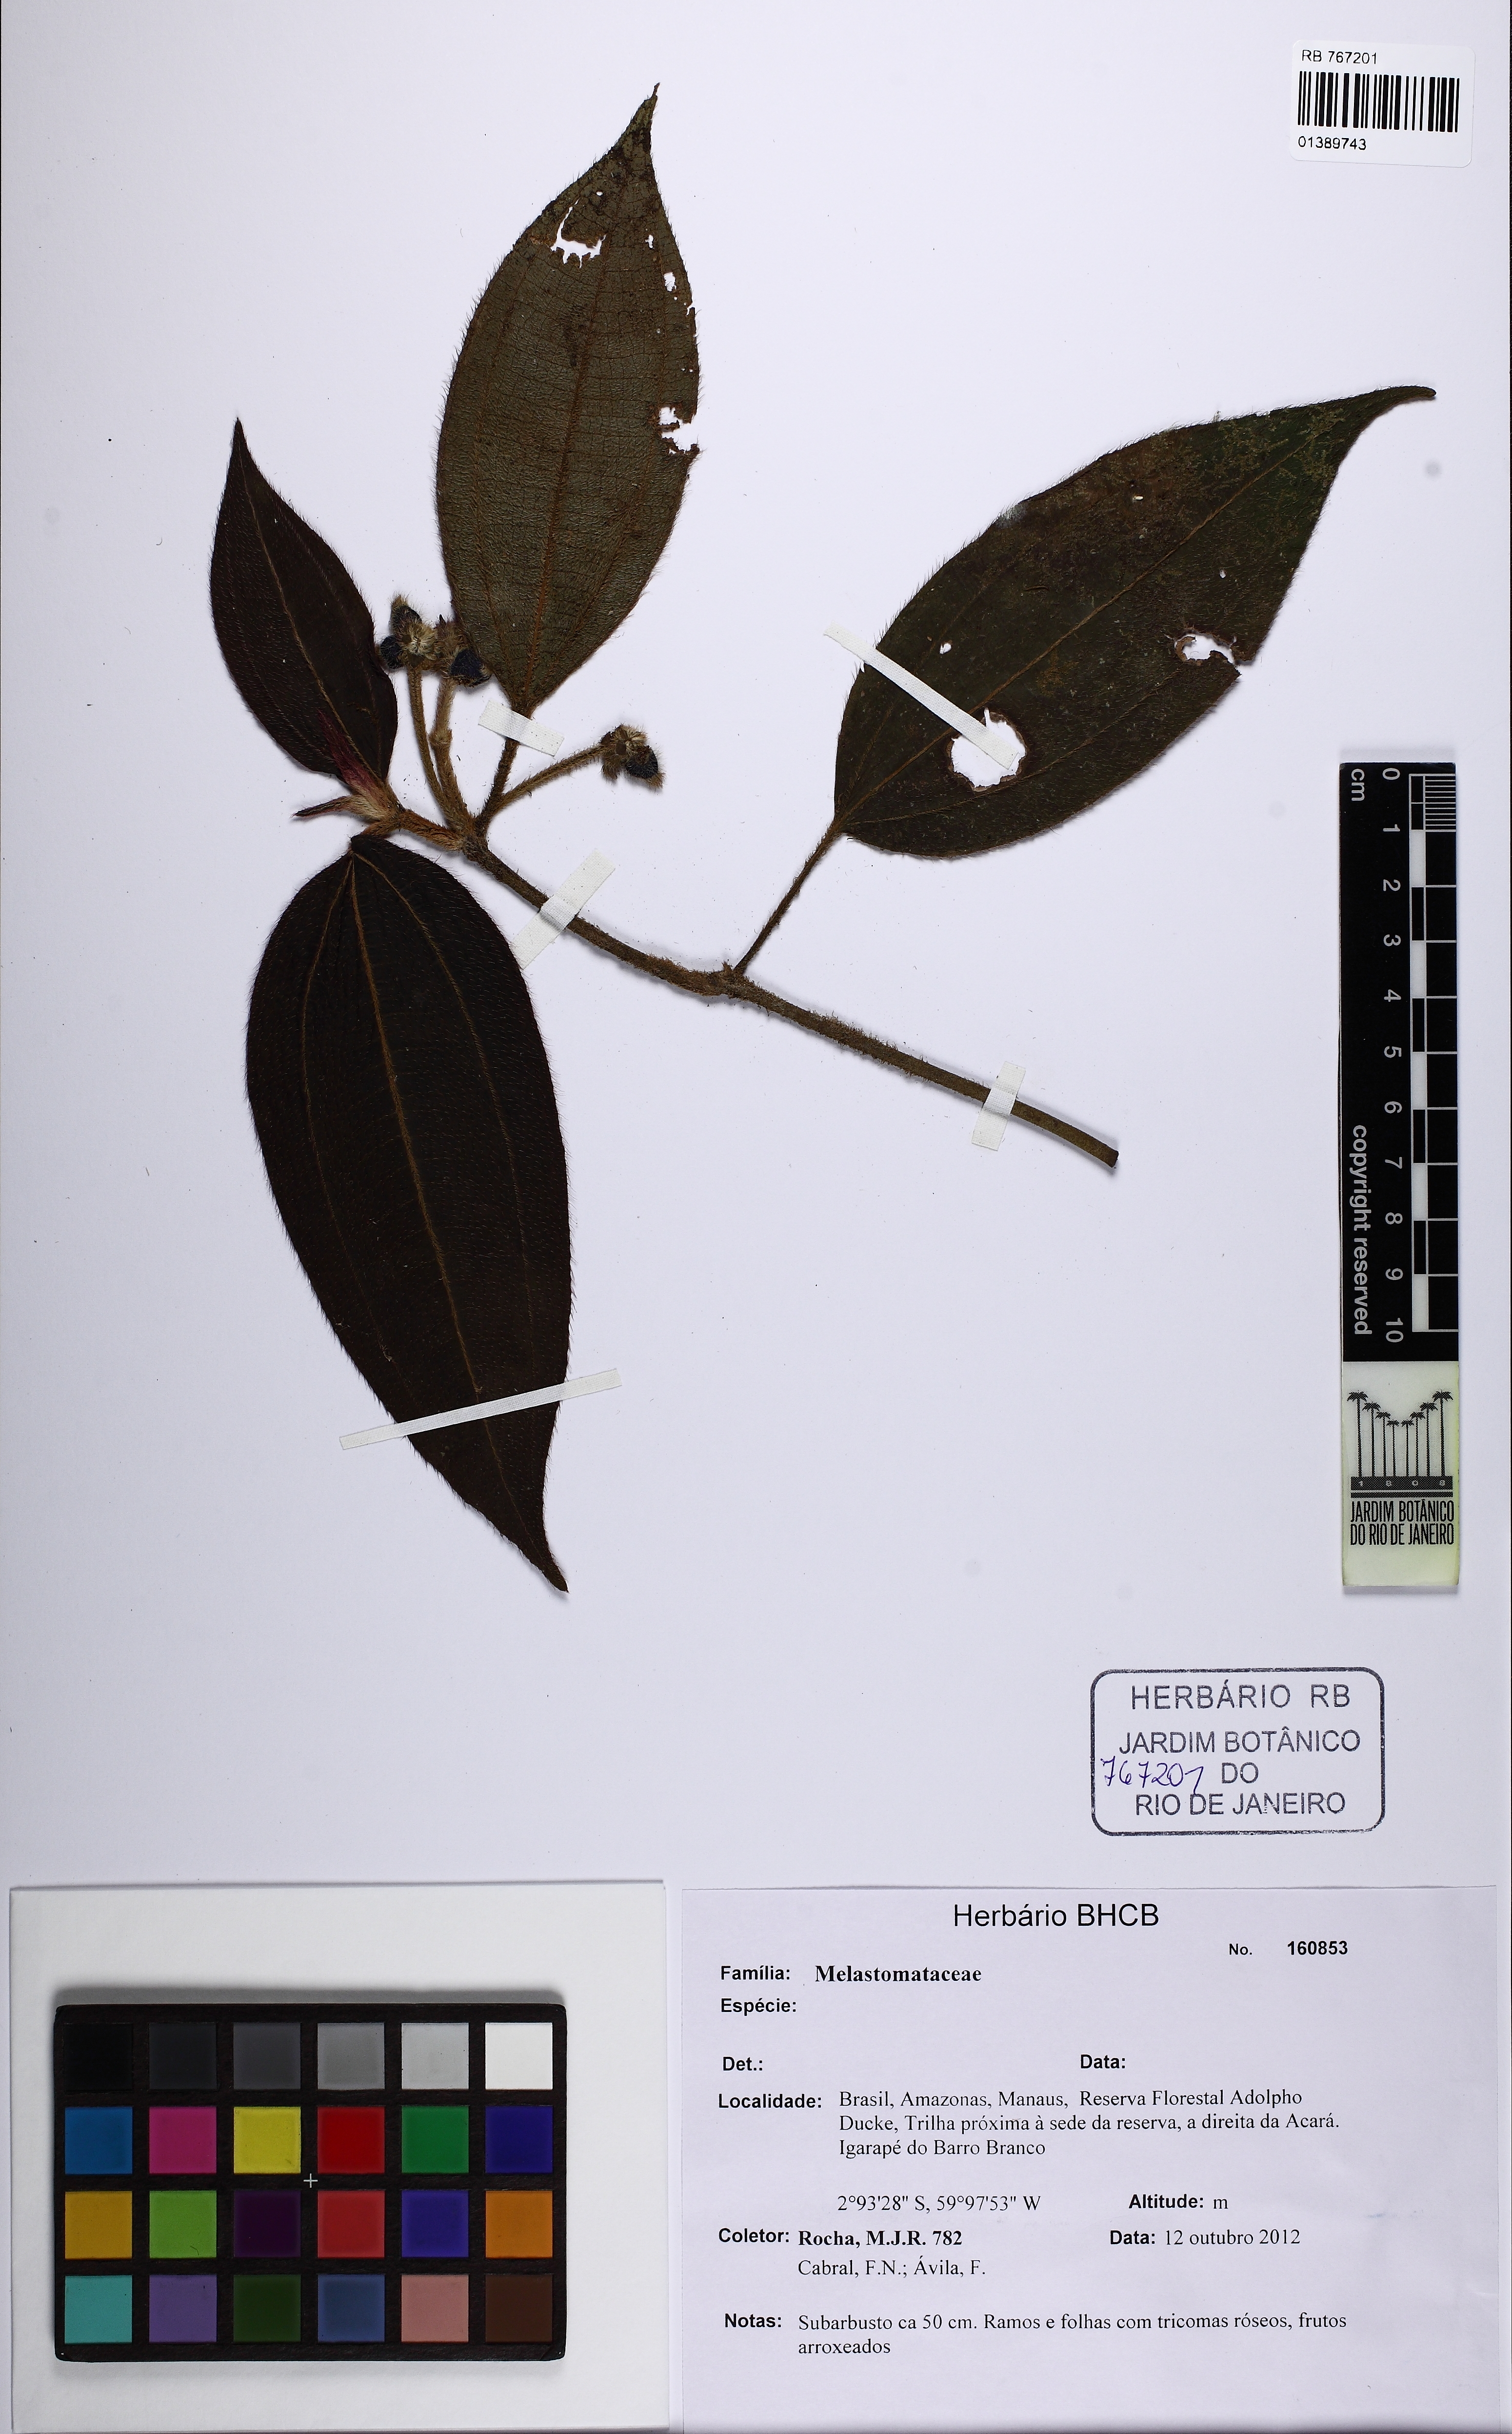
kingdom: Plantae
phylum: Tracheophyta
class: Magnoliopsida
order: Myrtales
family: Melastomataceae
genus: Miconia
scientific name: Miconia
